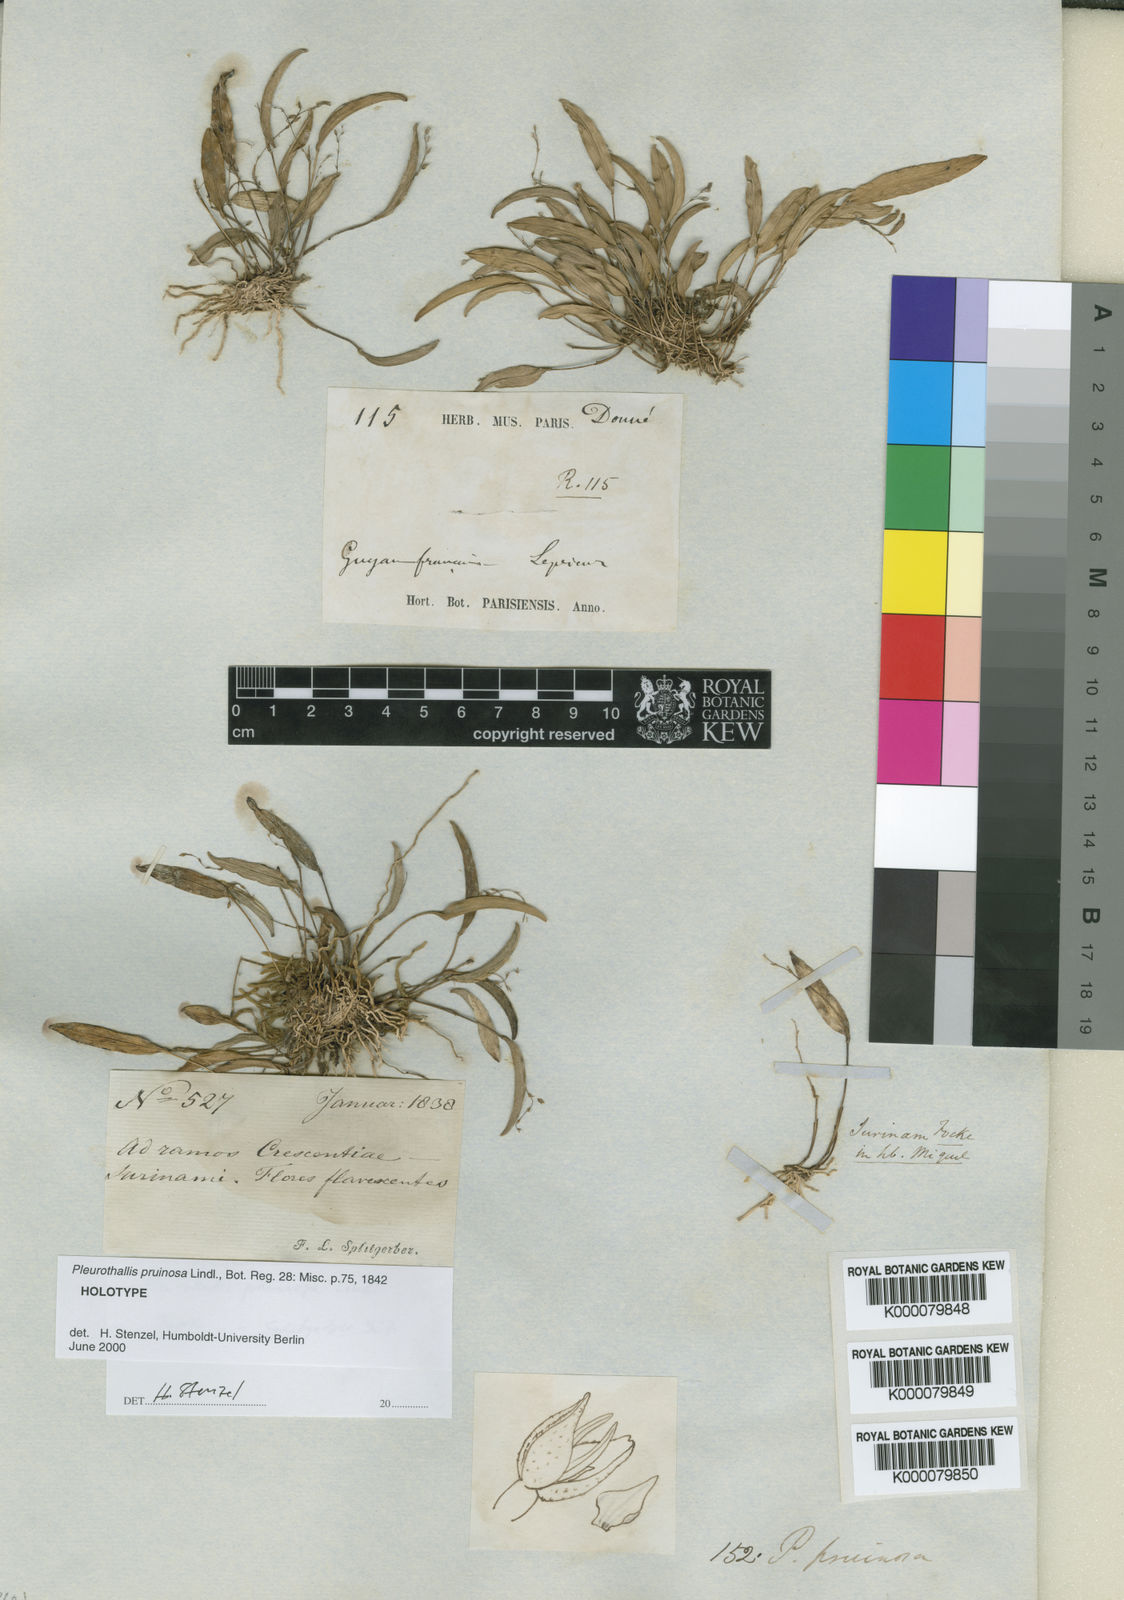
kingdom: Plantae
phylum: Tracheophyta
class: Liliopsida
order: Asparagales
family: Orchidaceae
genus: Pleurothallis
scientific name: Pleurothallis pruinosa
